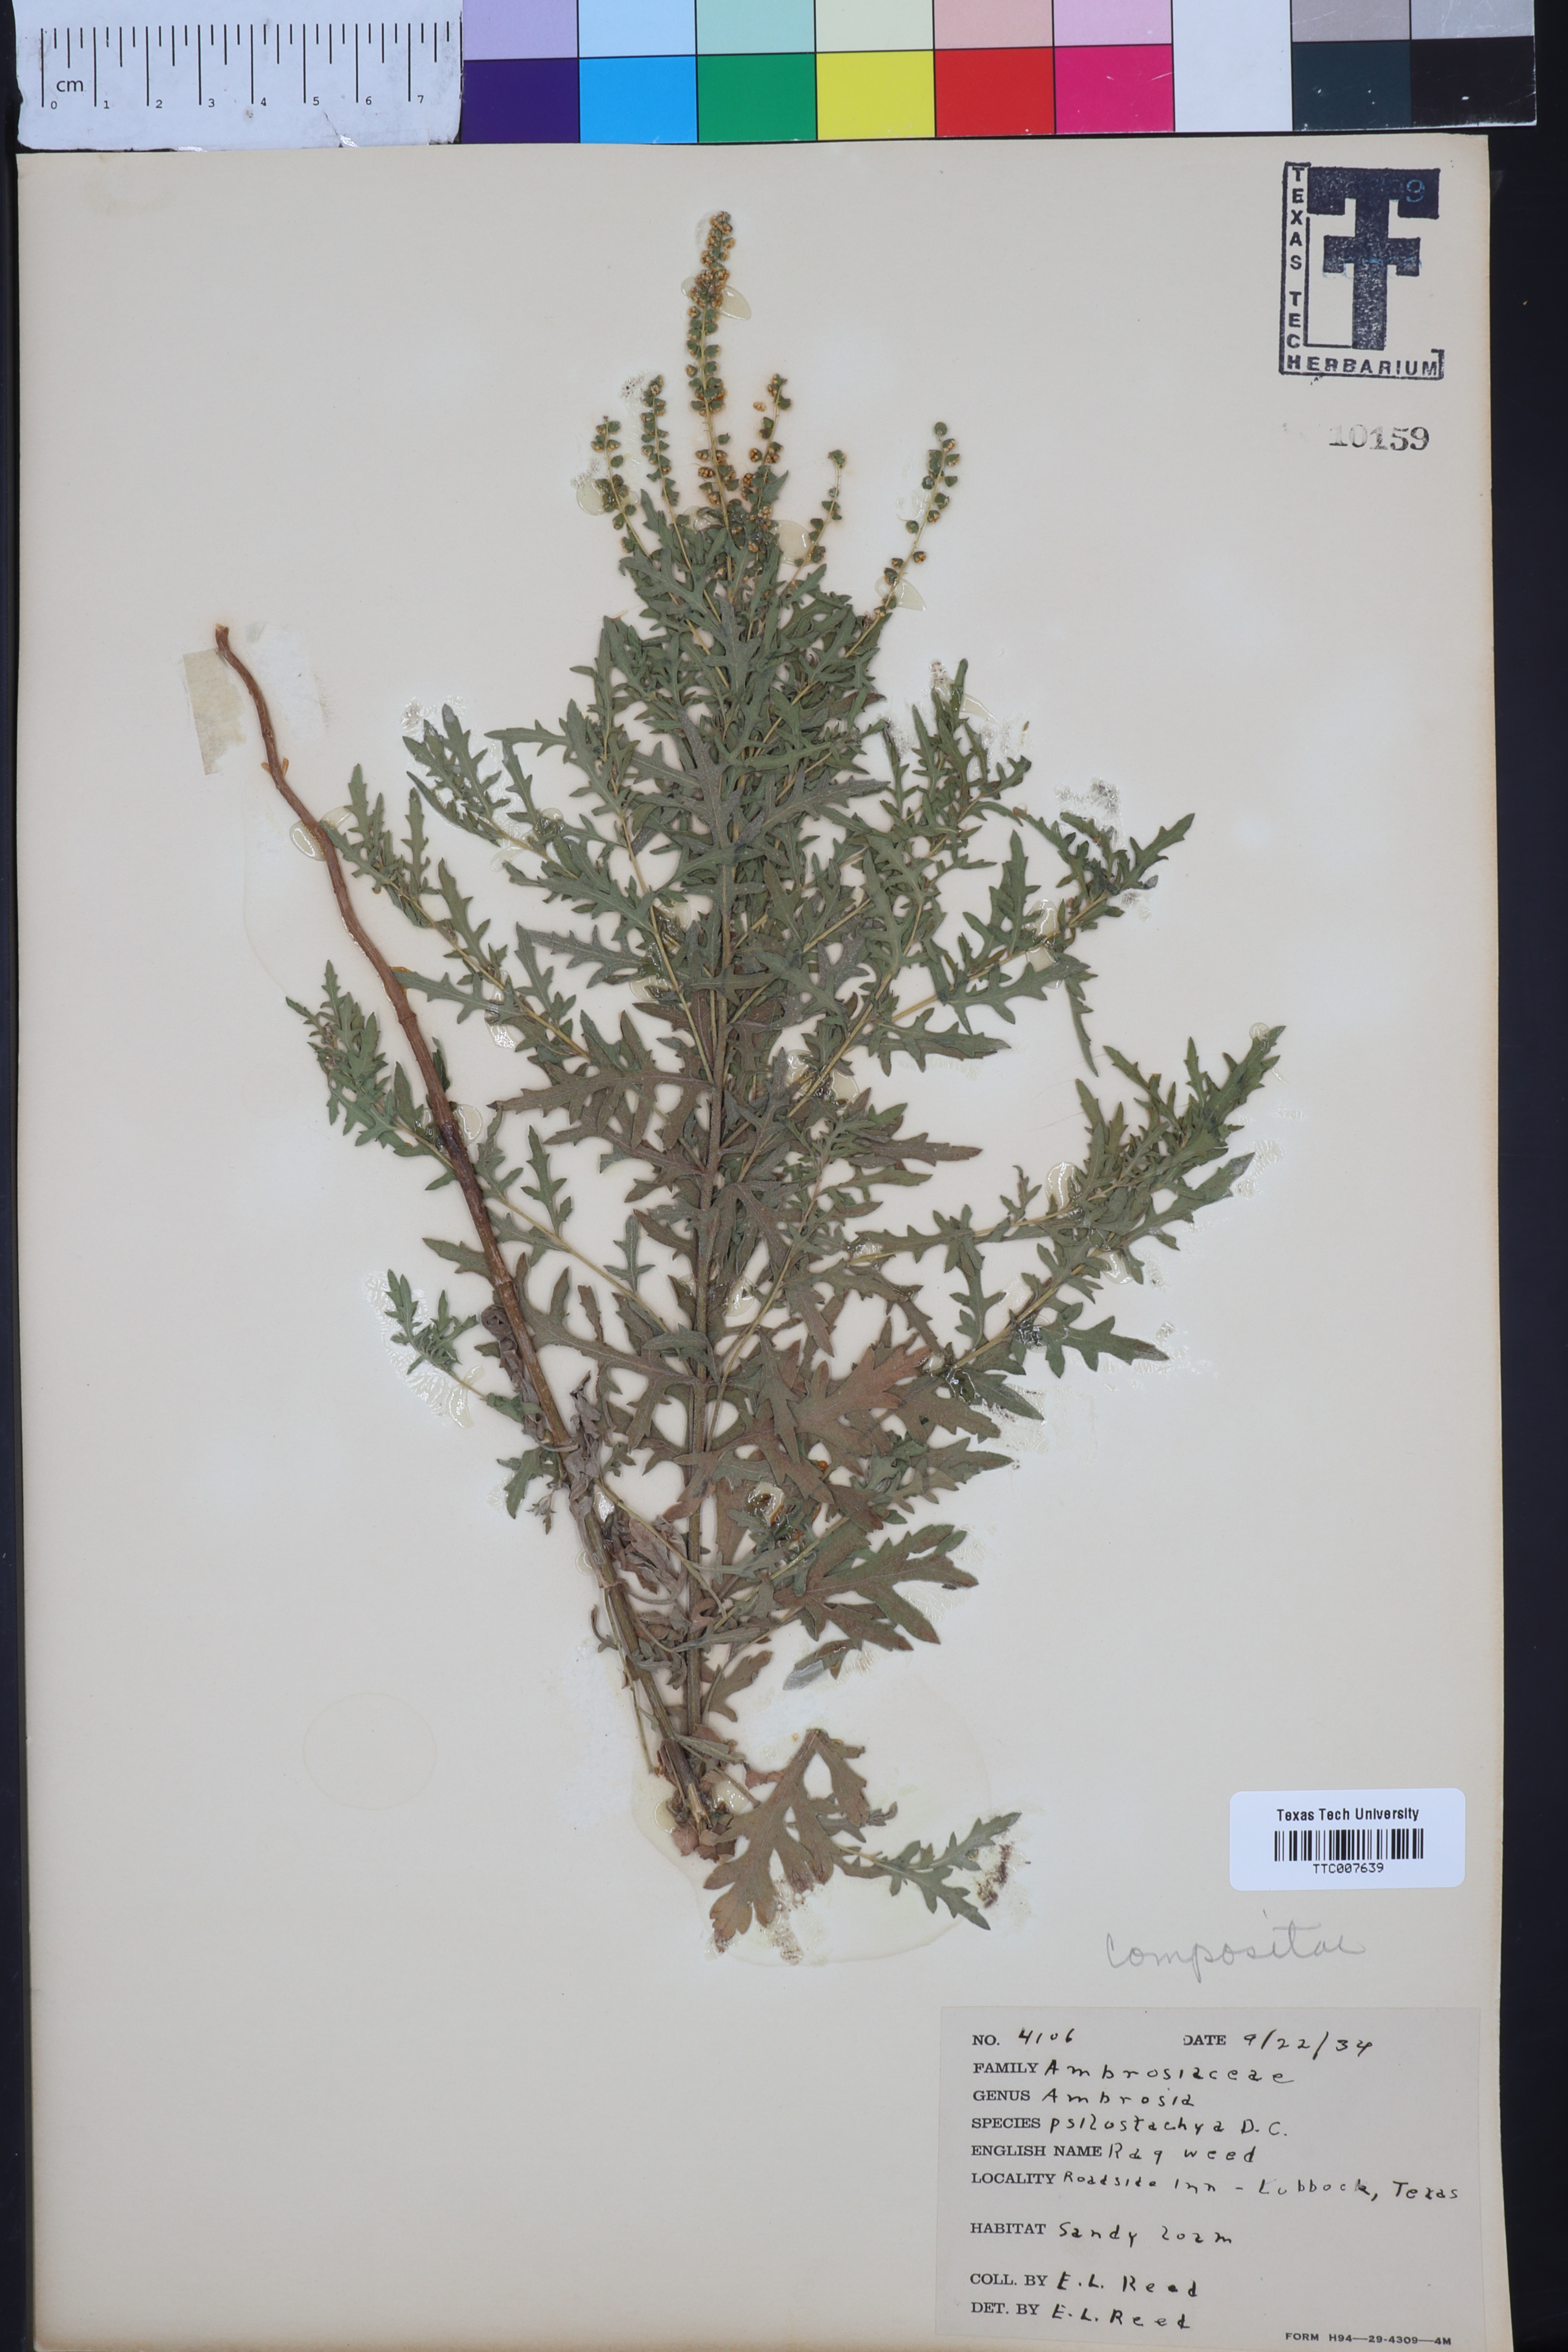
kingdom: Plantae
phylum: Tracheophyta
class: Magnoliopsida
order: Asterales
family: Asteraceae
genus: Ambrosia
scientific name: Ambrosia psilostachya
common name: Perennial ragweed
